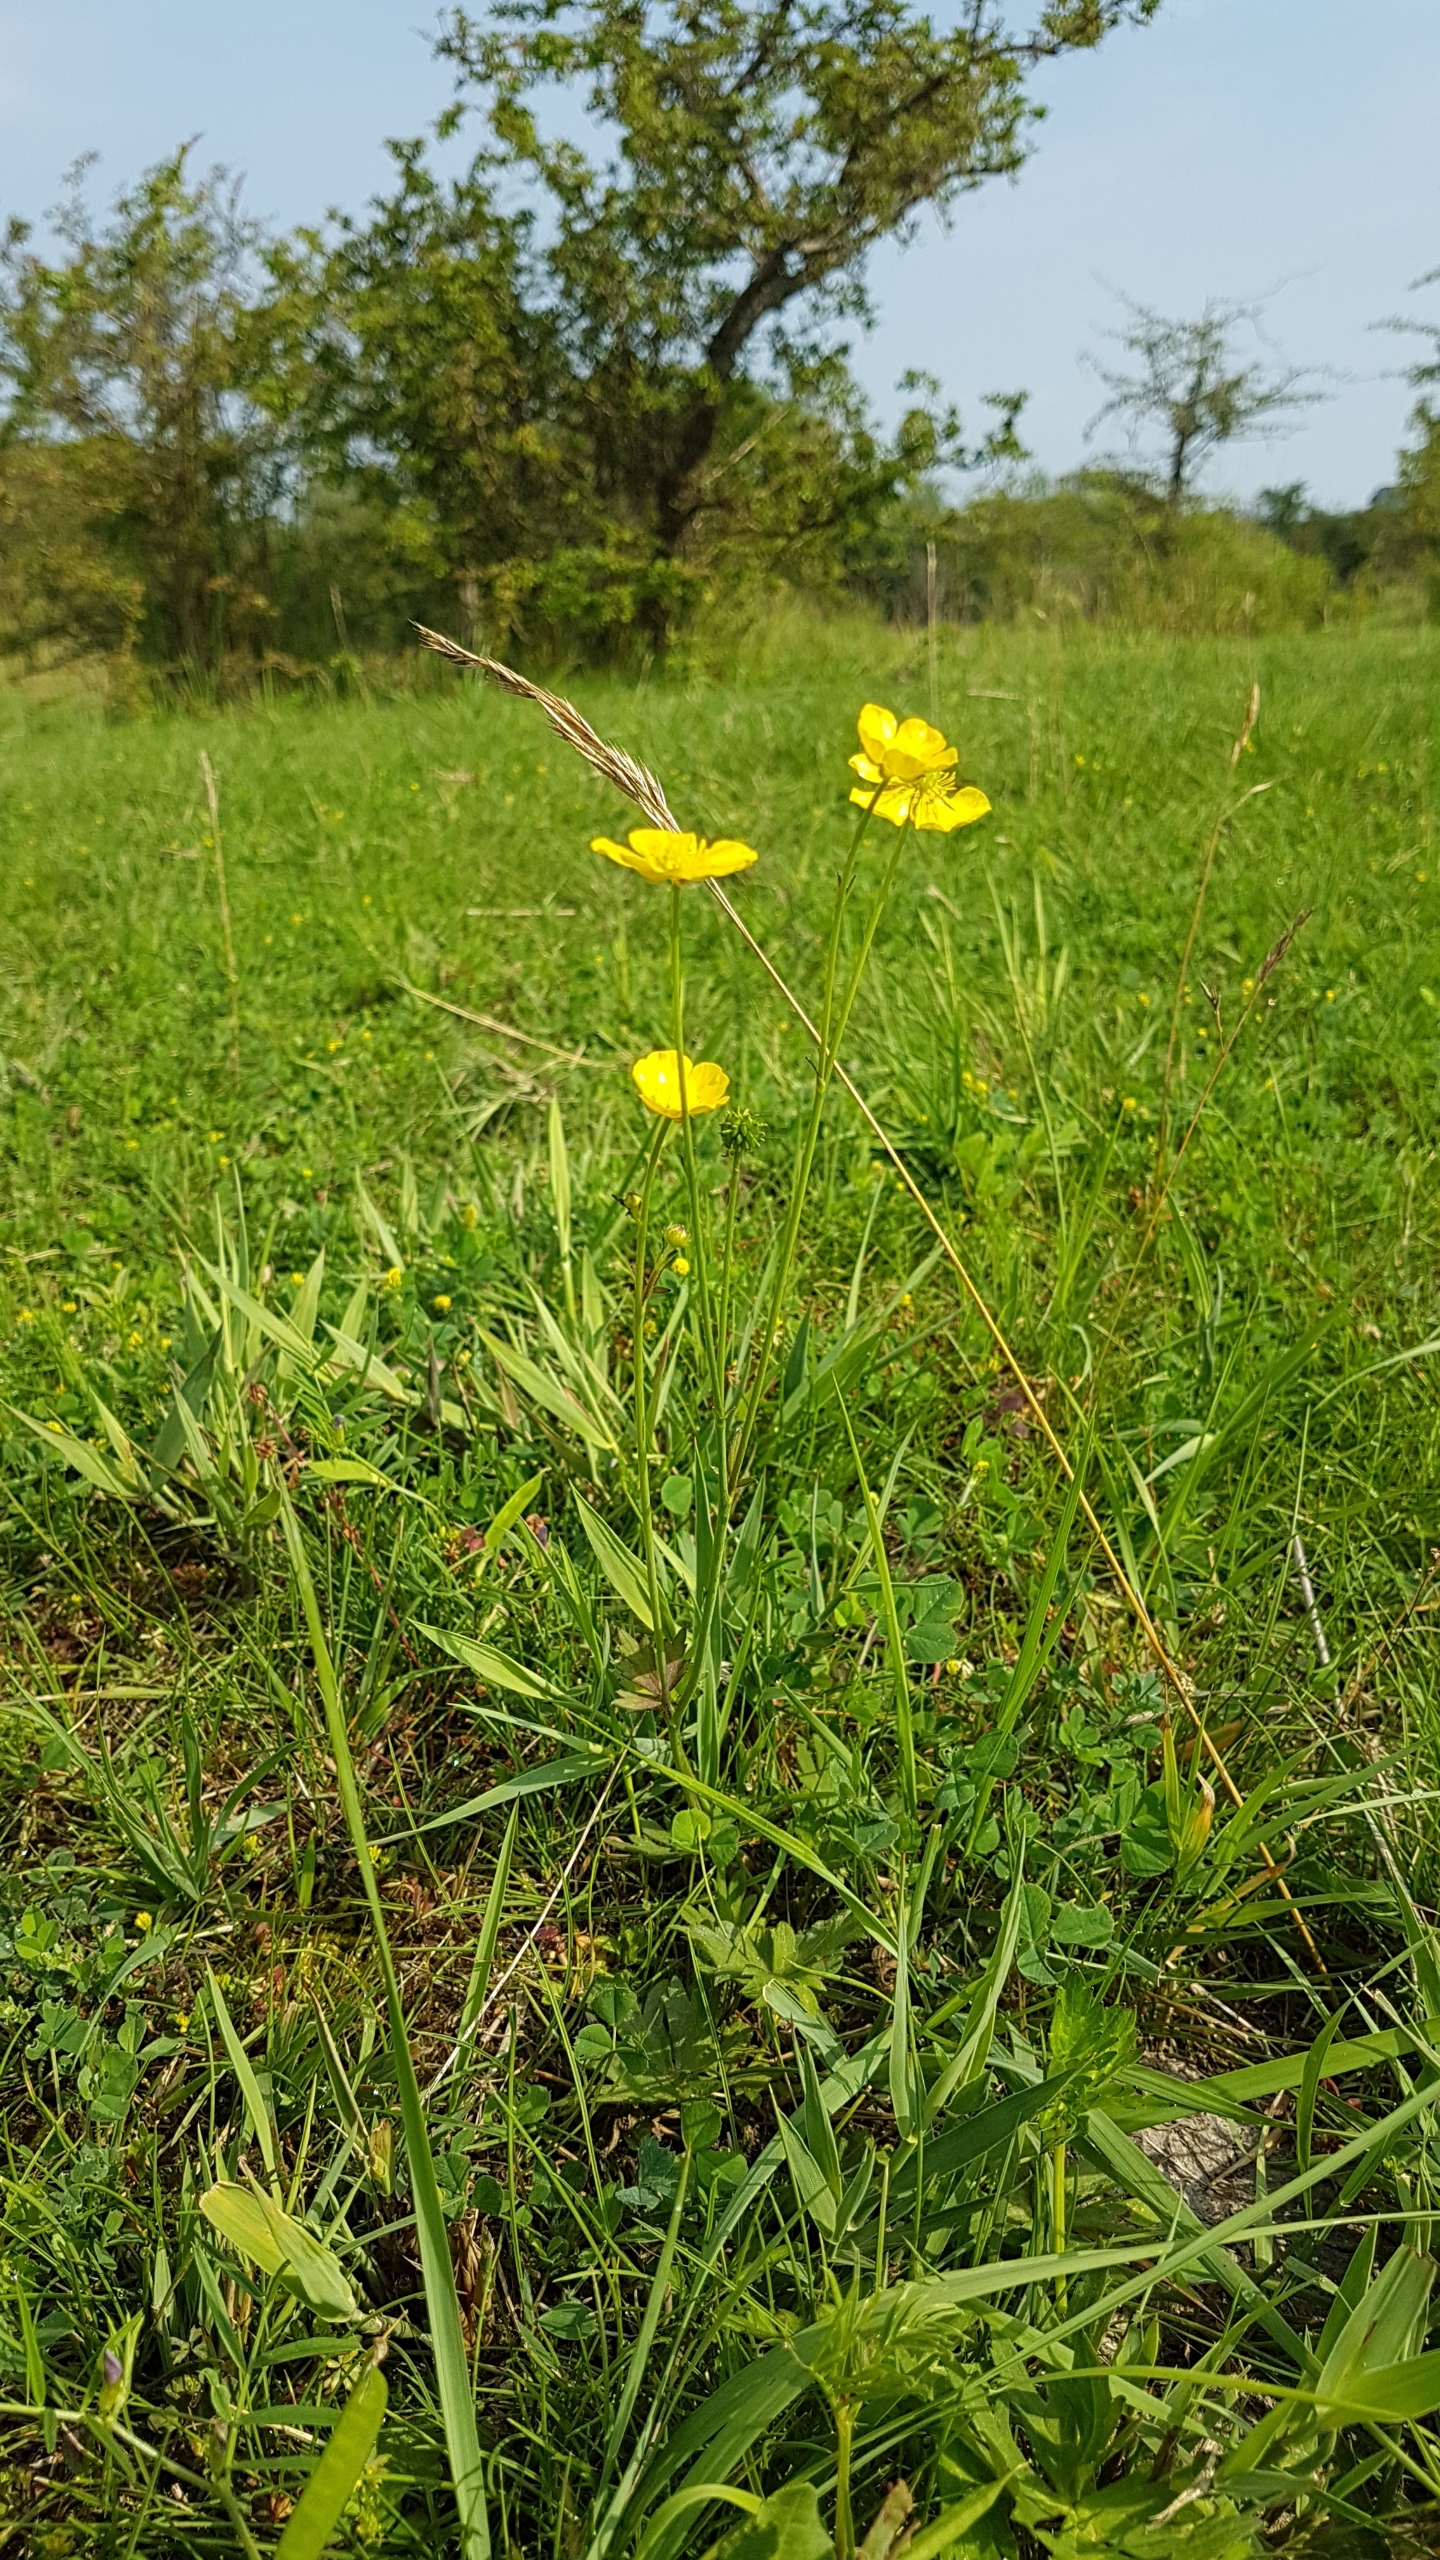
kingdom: Plantae
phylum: Tracheophyta
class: Magnoliopsida
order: Ranunculales
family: Ranunculaceae
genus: Ranunculus
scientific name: Ranunculus acris
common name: Bidende ranunkel
